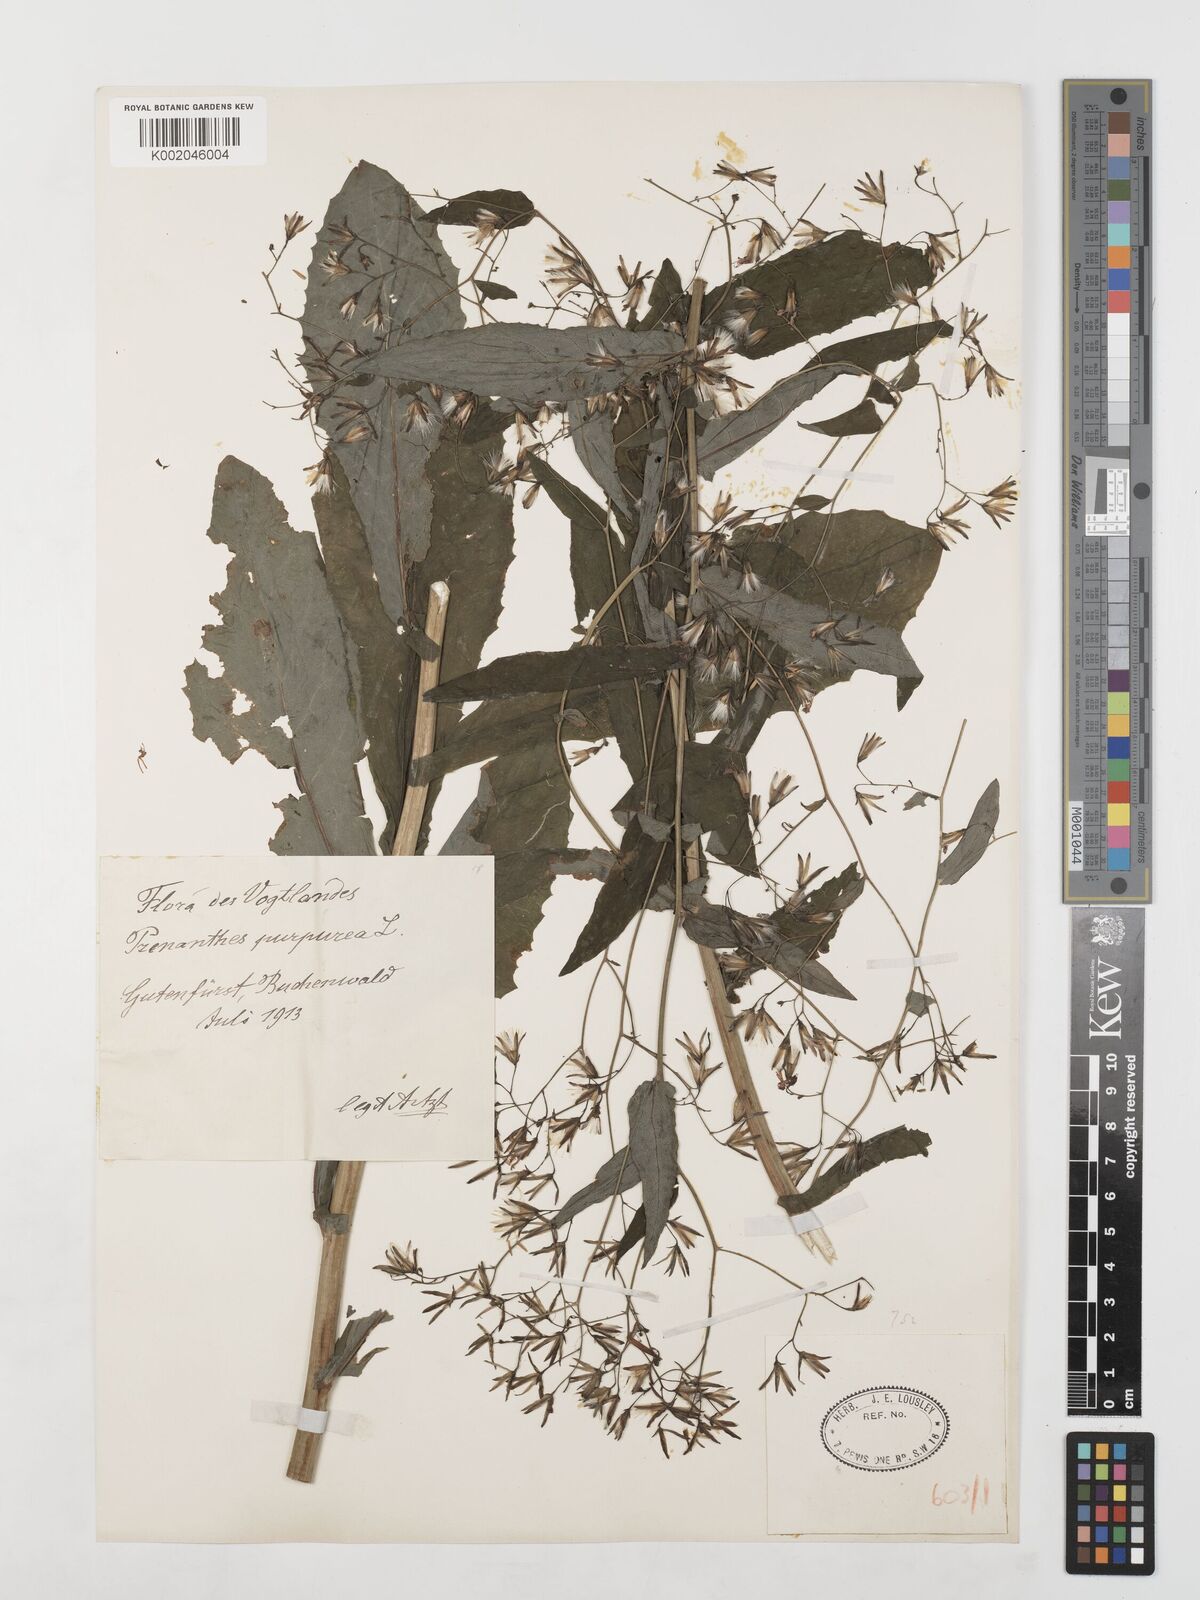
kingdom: Plantae
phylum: Tracheophyta
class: Magnoliopsida
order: Asterales
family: Asteraceae
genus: Prenanthes
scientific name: Prenanthes purpurea
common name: Purple lettuce
